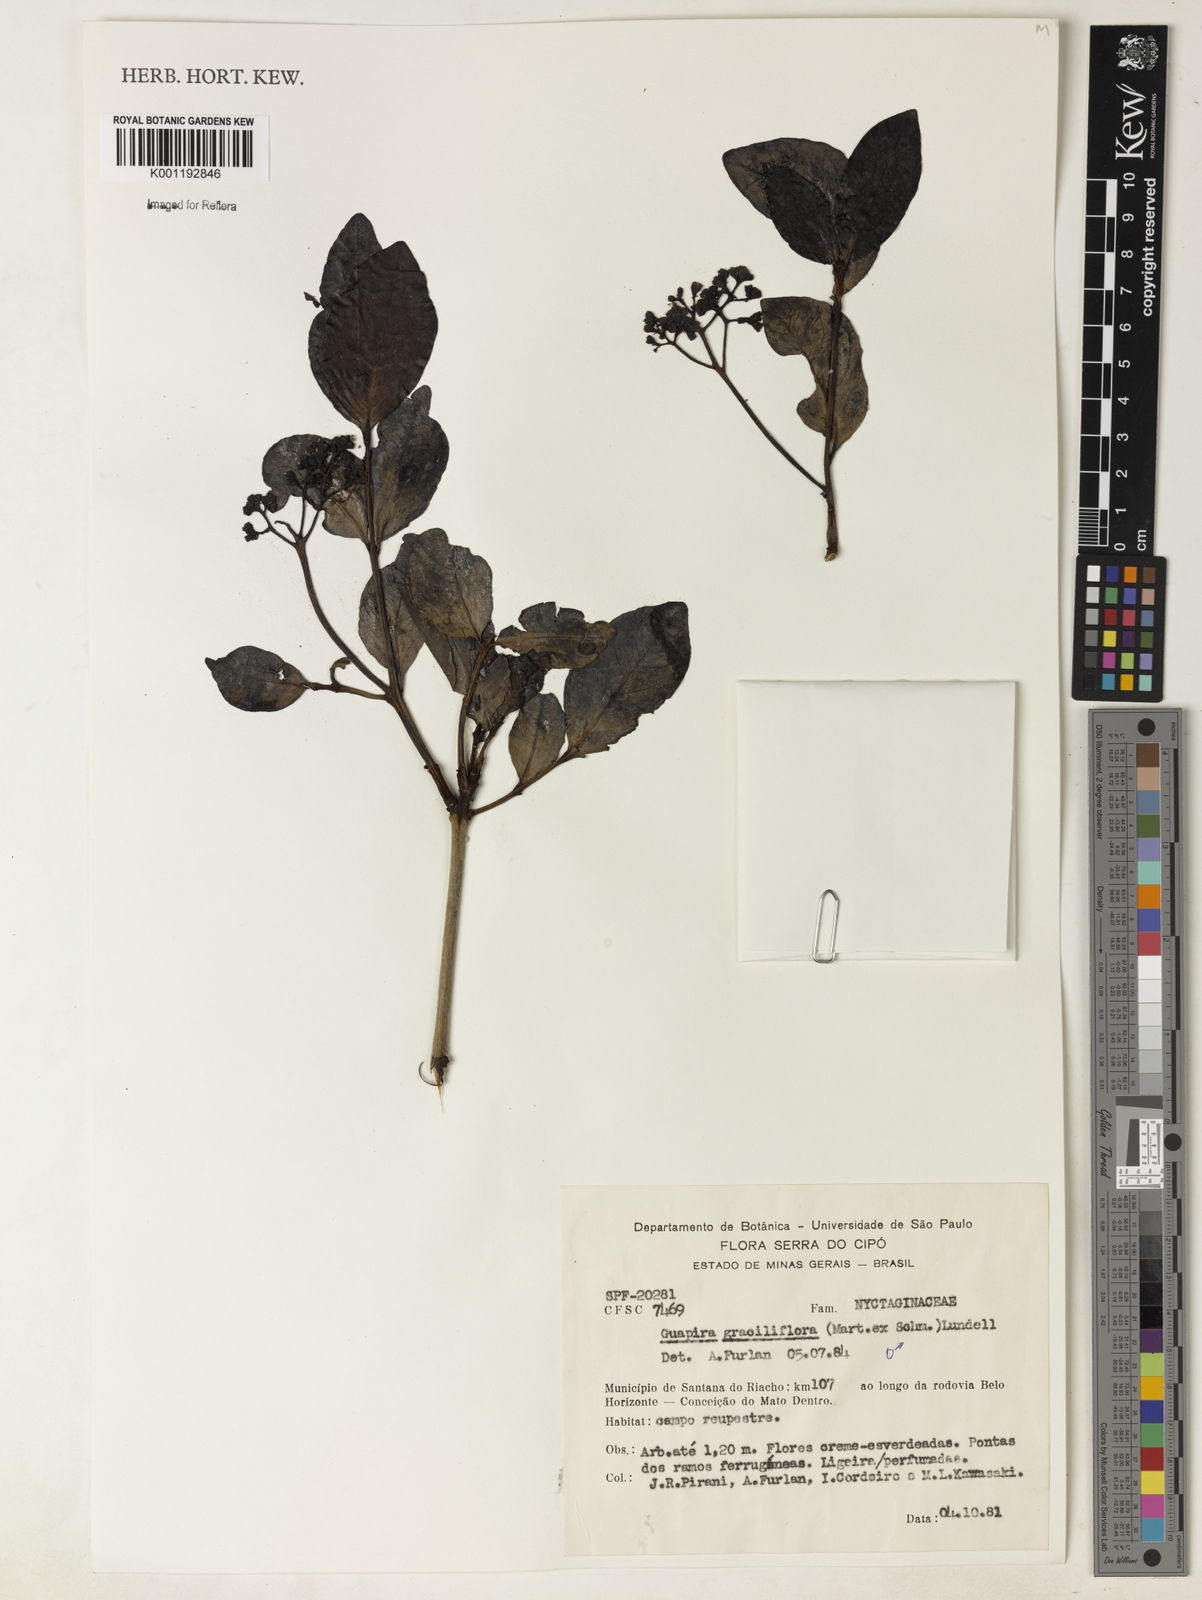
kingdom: Plantae
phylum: Tracheophyta
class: Magnoliopsida
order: Caryophyllales
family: Nyctaginaceae
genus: Guapira
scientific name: Guapira graciliflora
